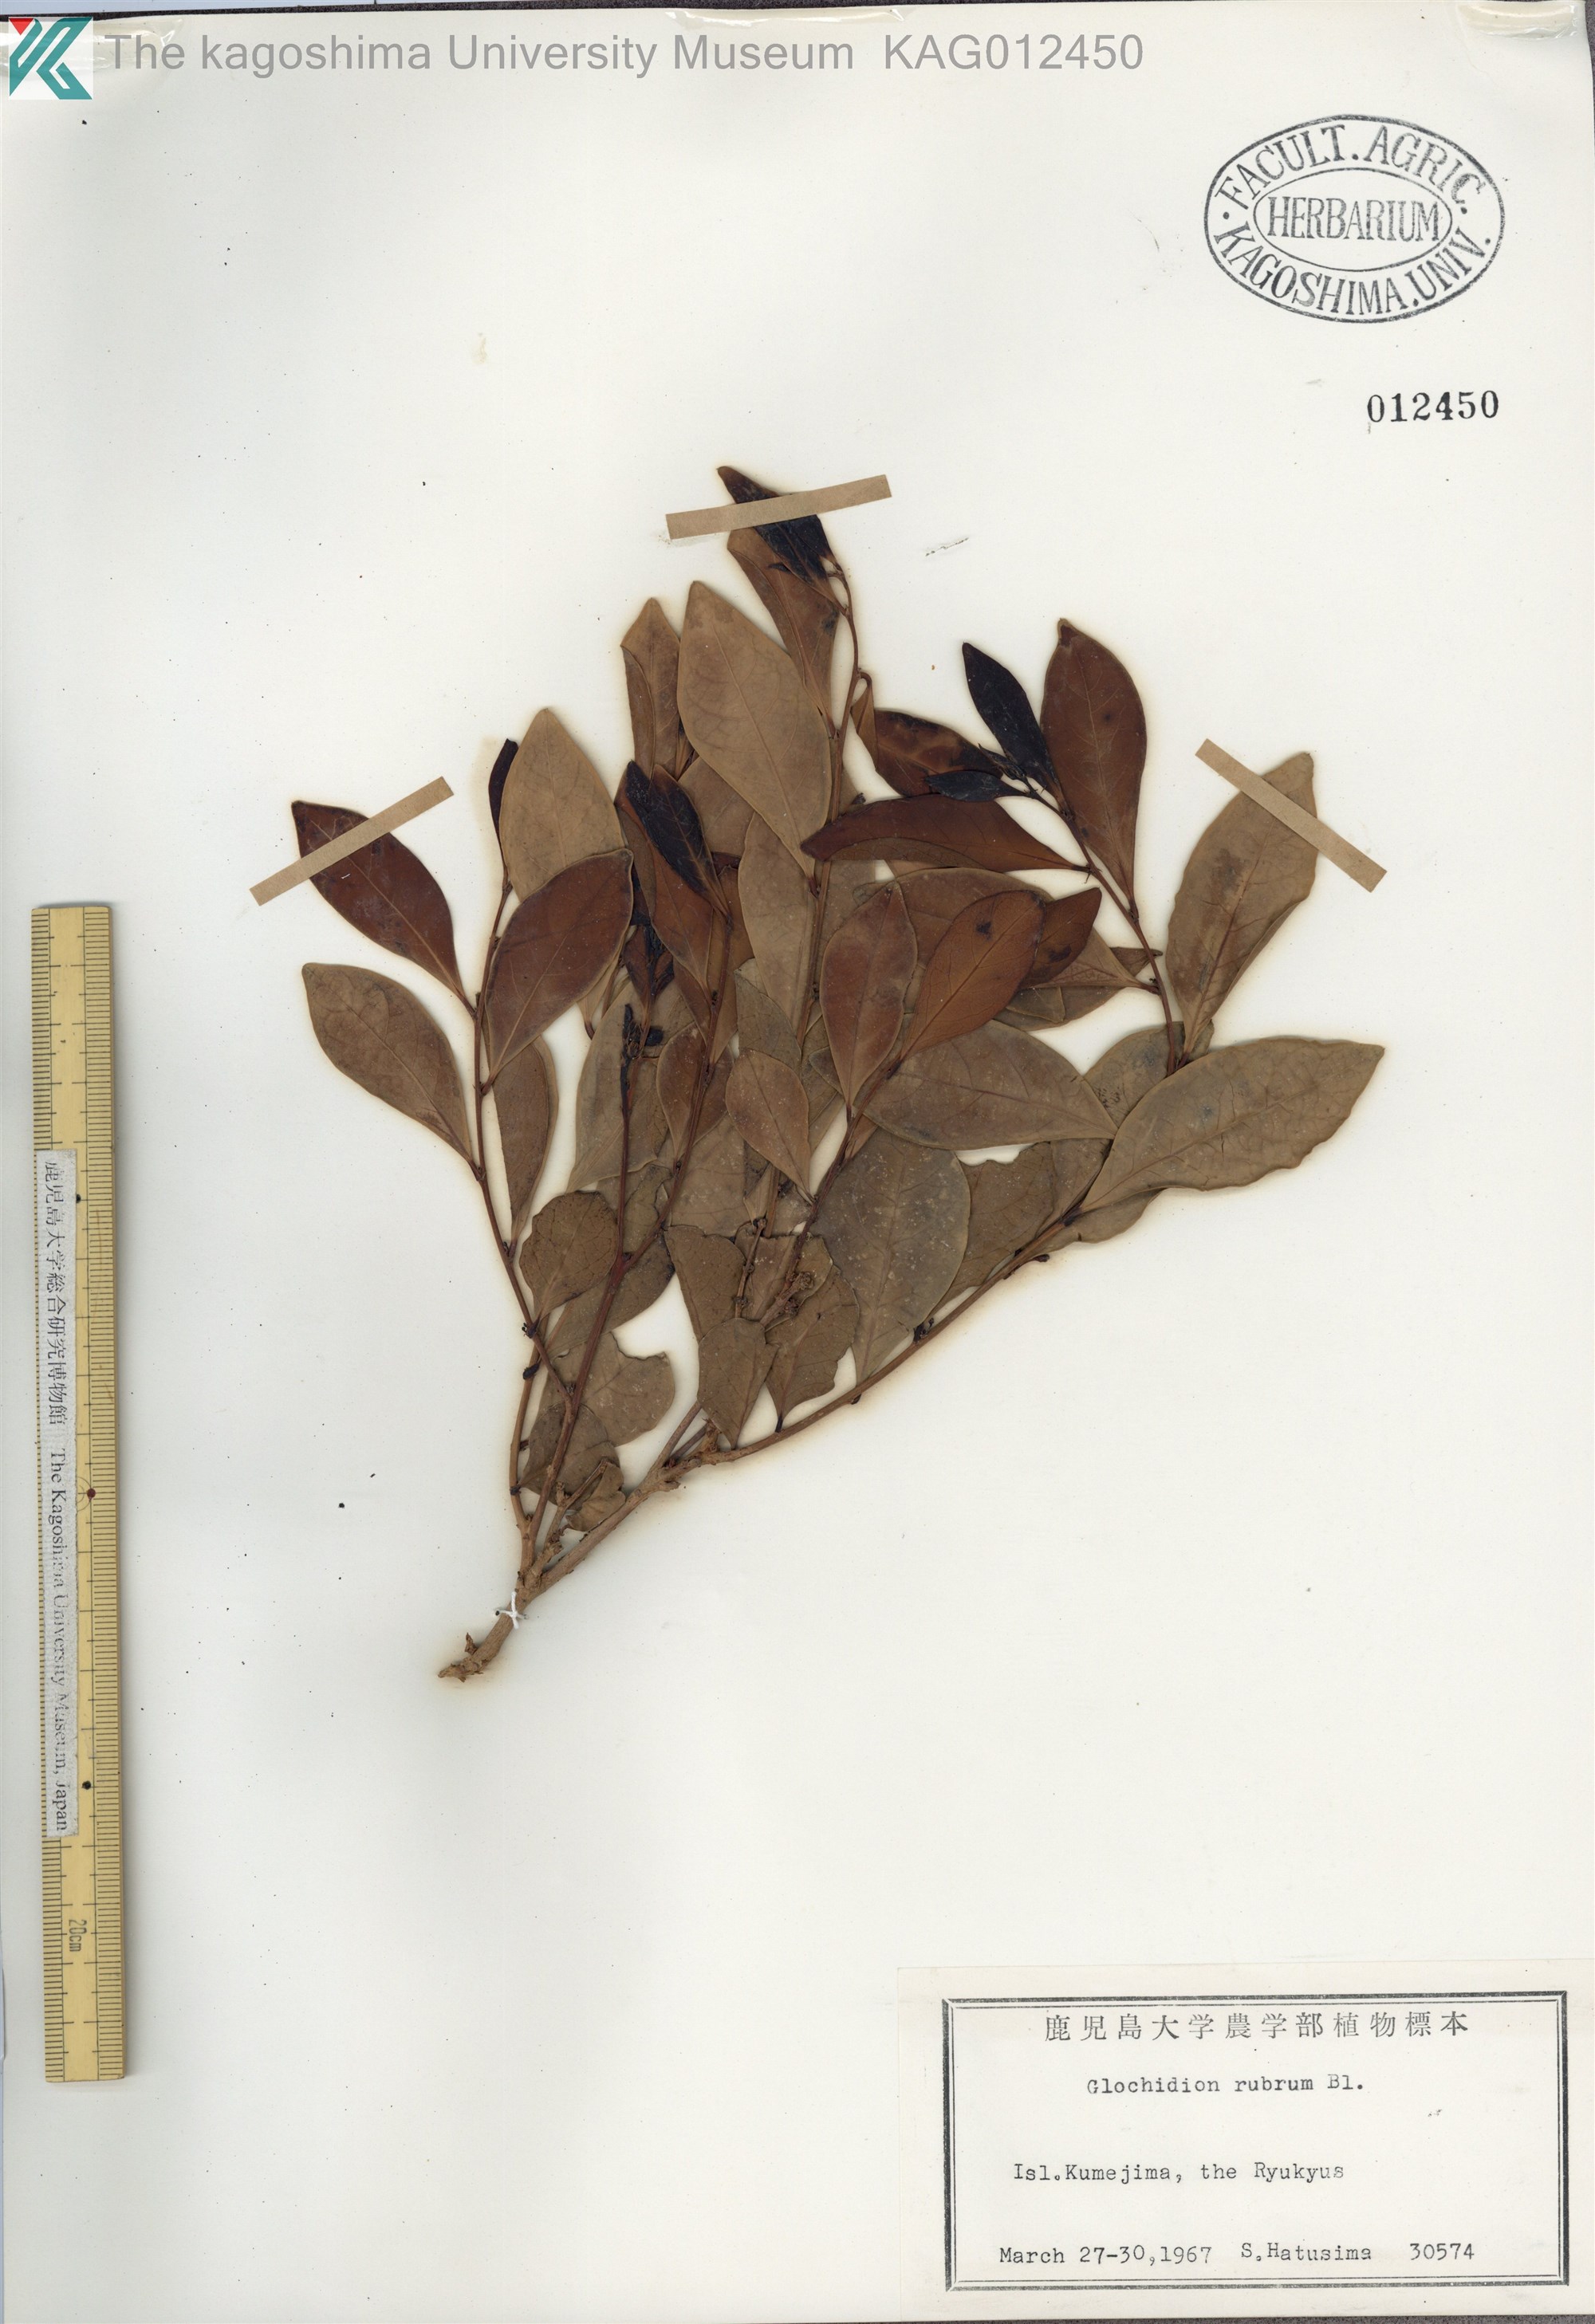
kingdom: Plantae
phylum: Tracheophyta
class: Magnoliopsida
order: Malpighiales
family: Phyllanthaceae
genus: Glochidion
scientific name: Glochidion rubrum
